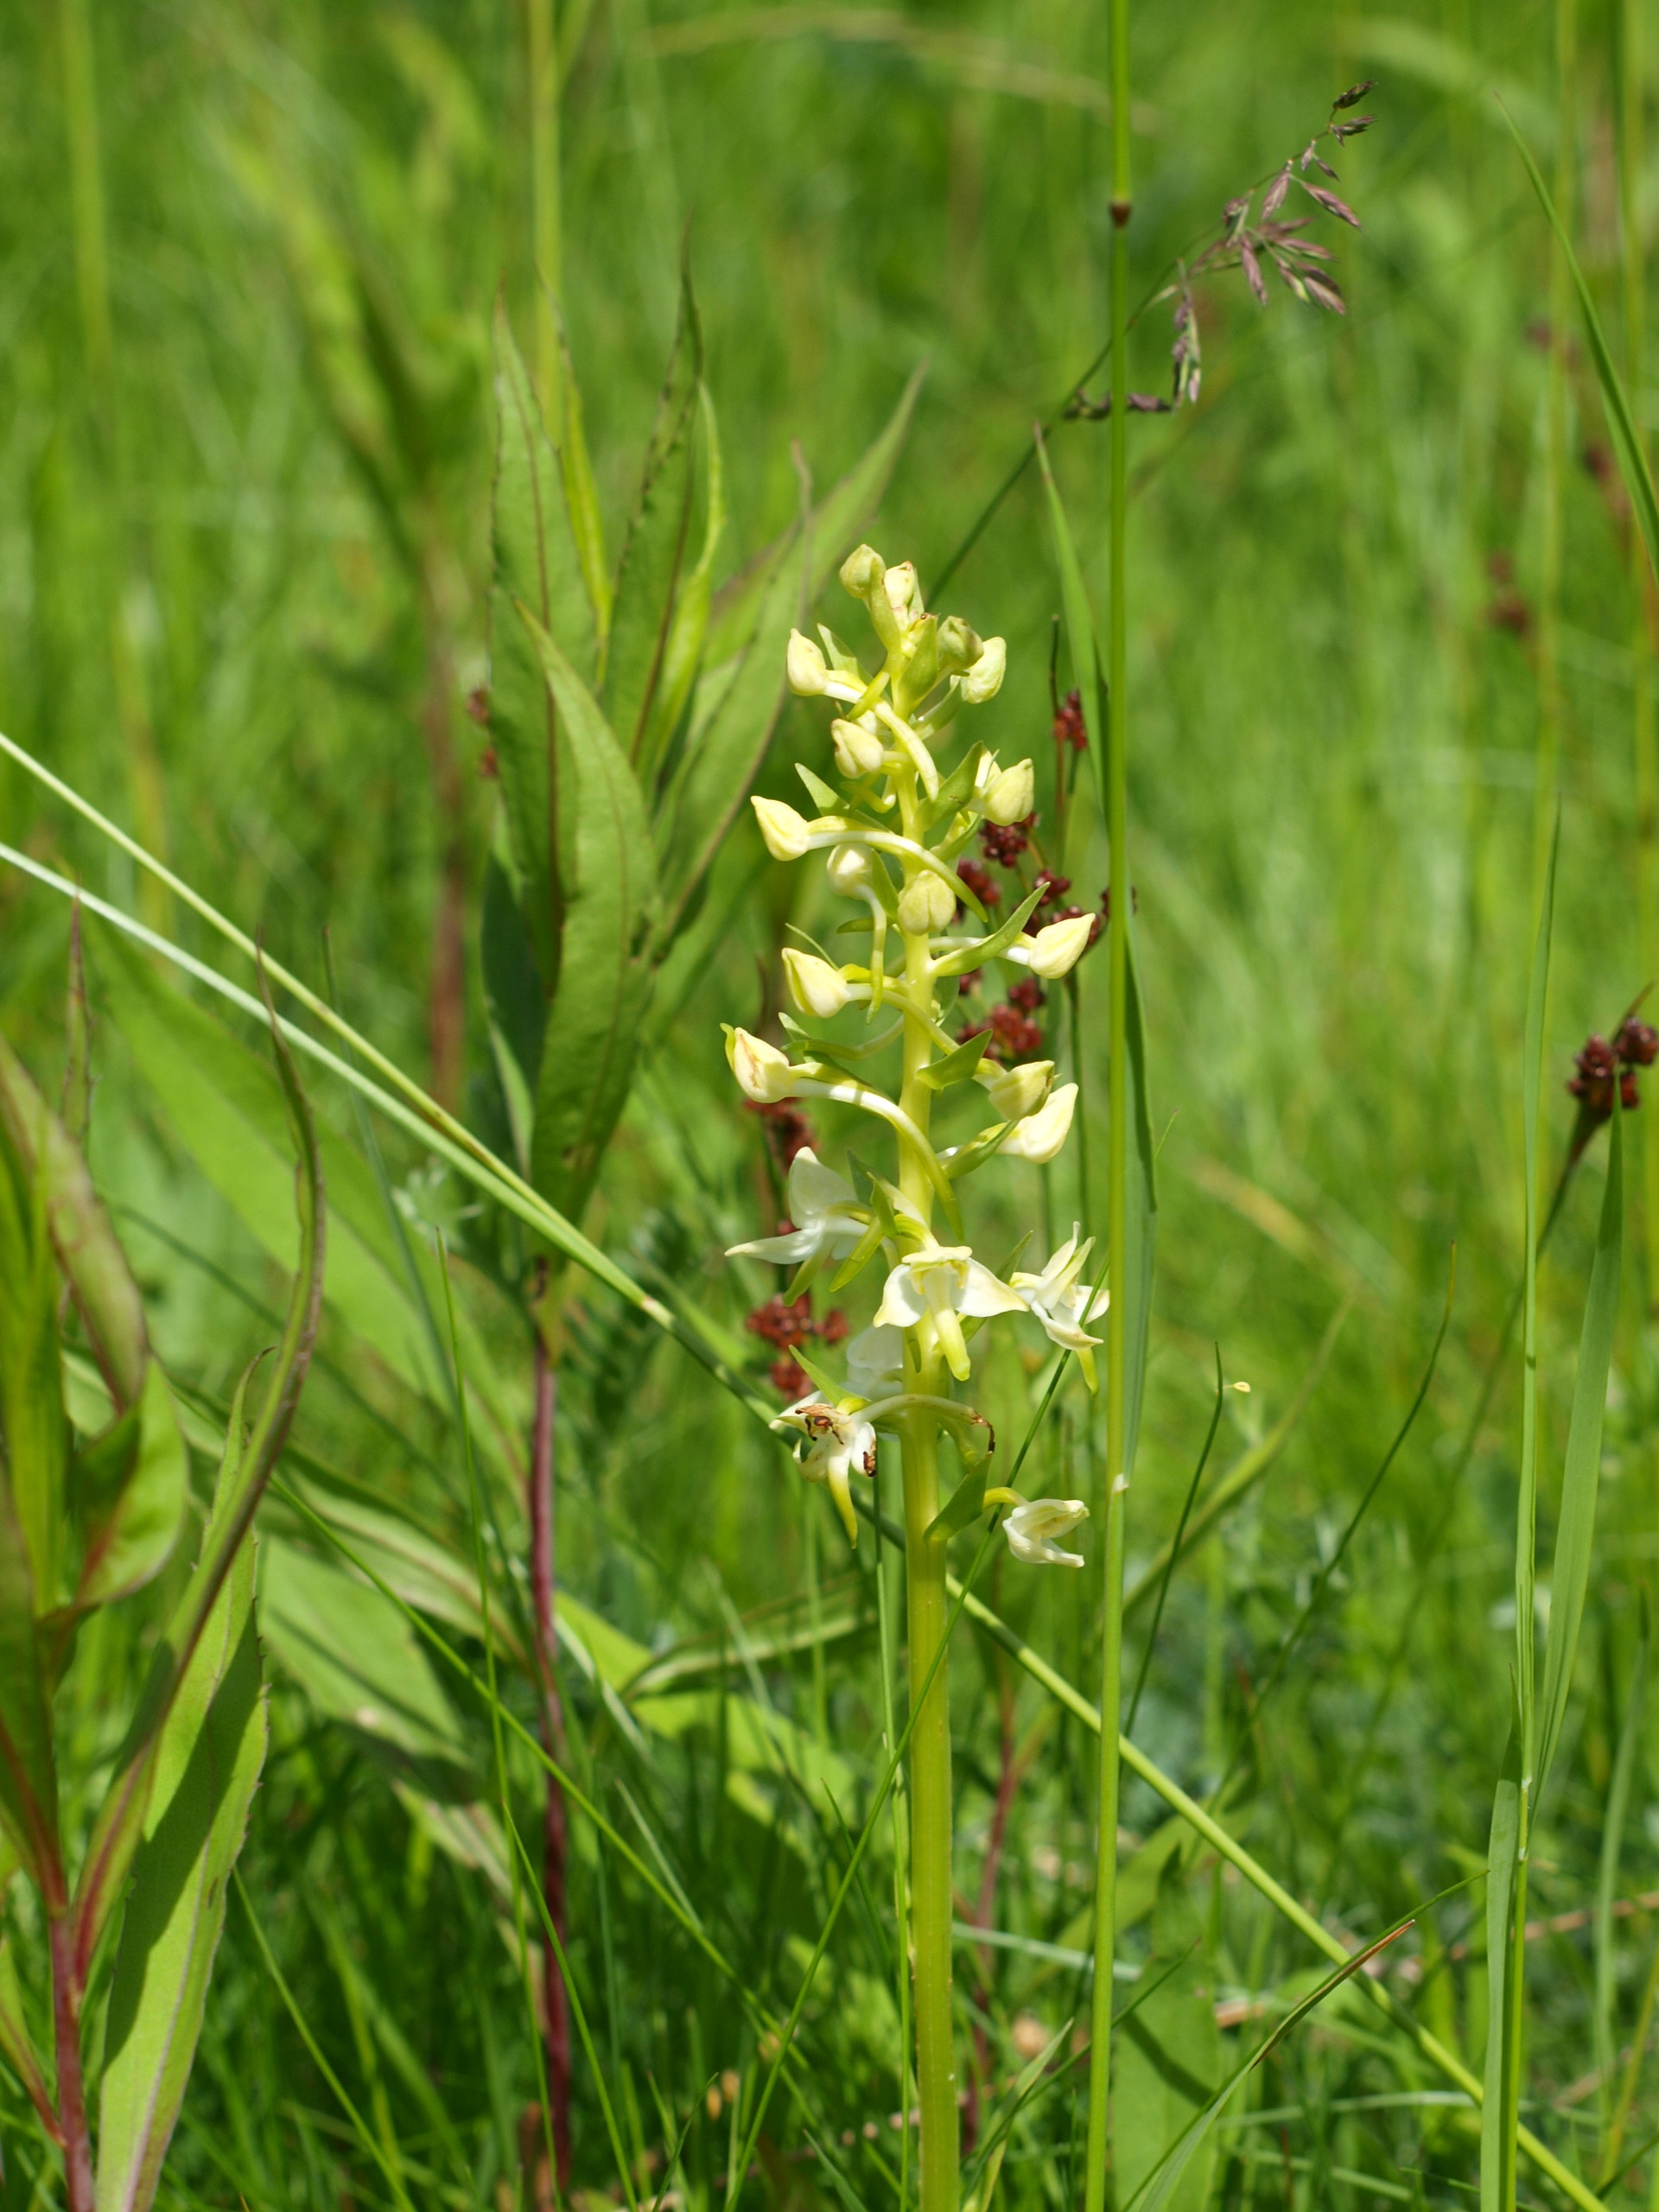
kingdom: Plantae
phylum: Tracheophyta
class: Liliopsida
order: Asparagales
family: Orchidaceae
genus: Platanthera
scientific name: Platanthera chlorantha
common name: Skov-gøgelilje
